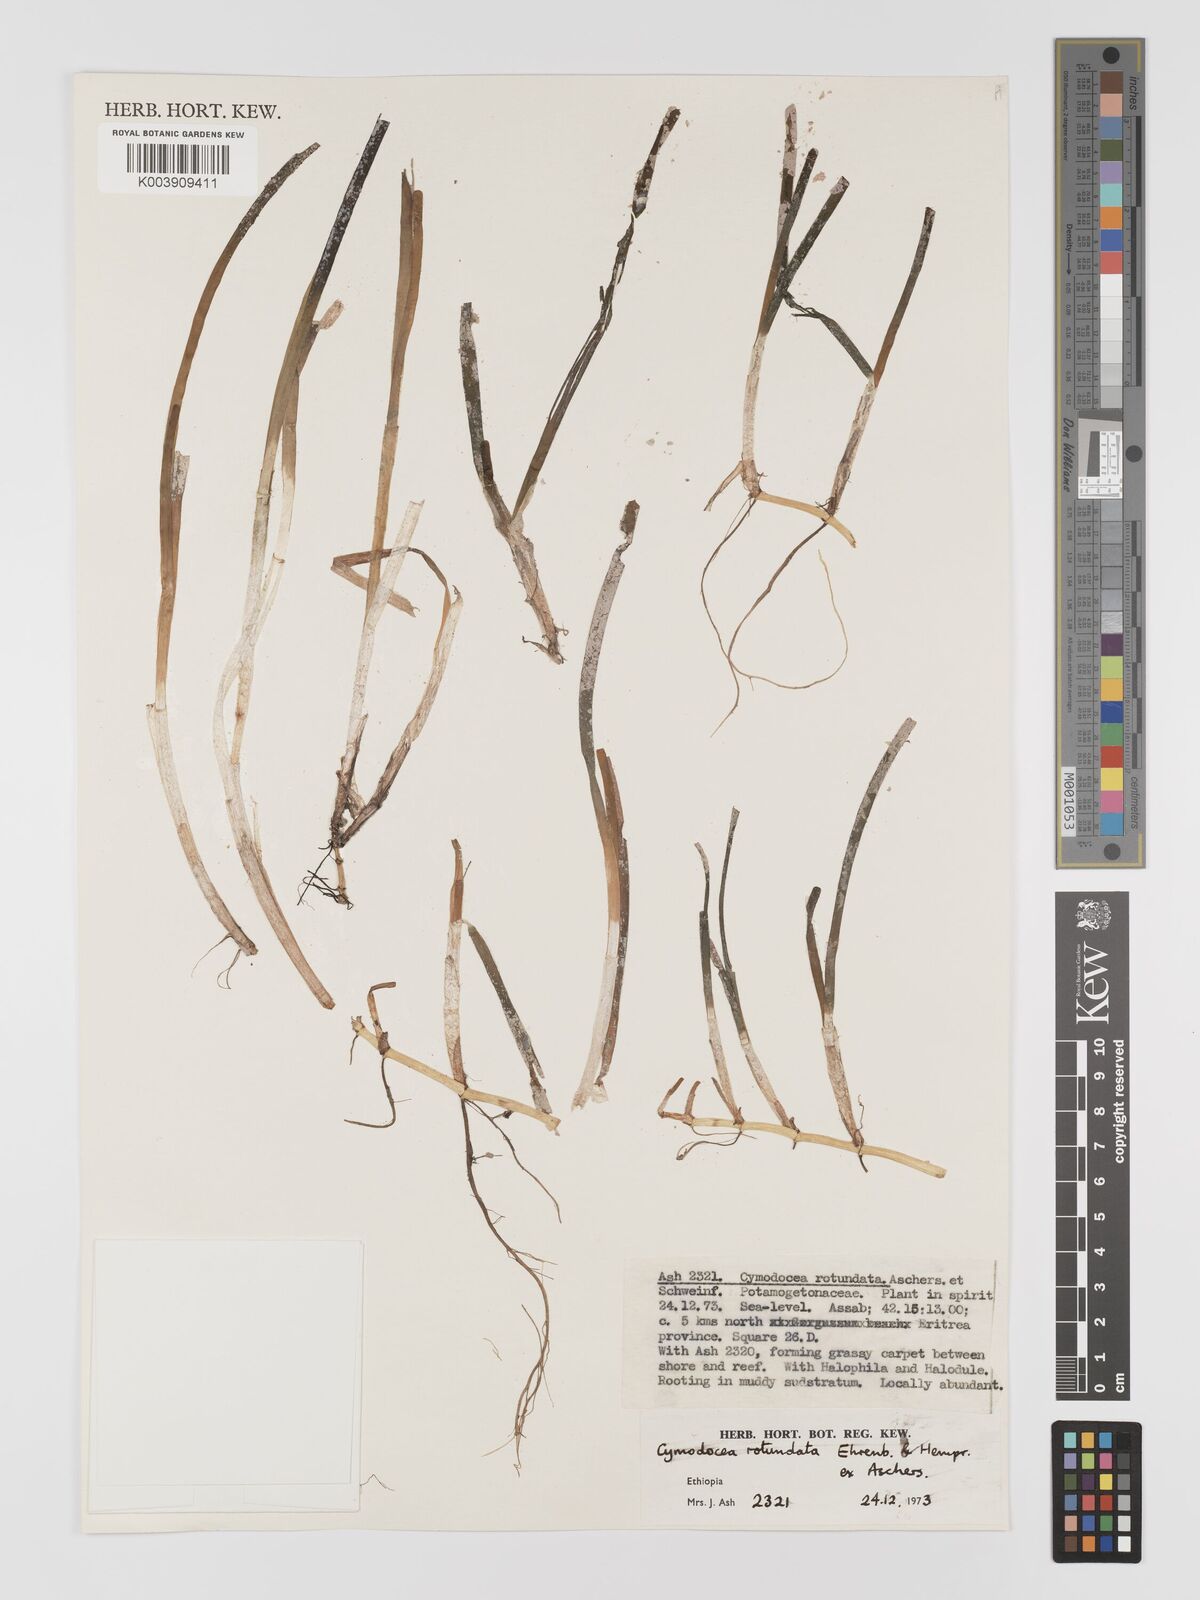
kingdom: Plantae
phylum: Tracheophyta
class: Liliopsida
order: Alismatales
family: Cymodoceaceae
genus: Cymodocea
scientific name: Cymodocea rotundata
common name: Species code: cr
